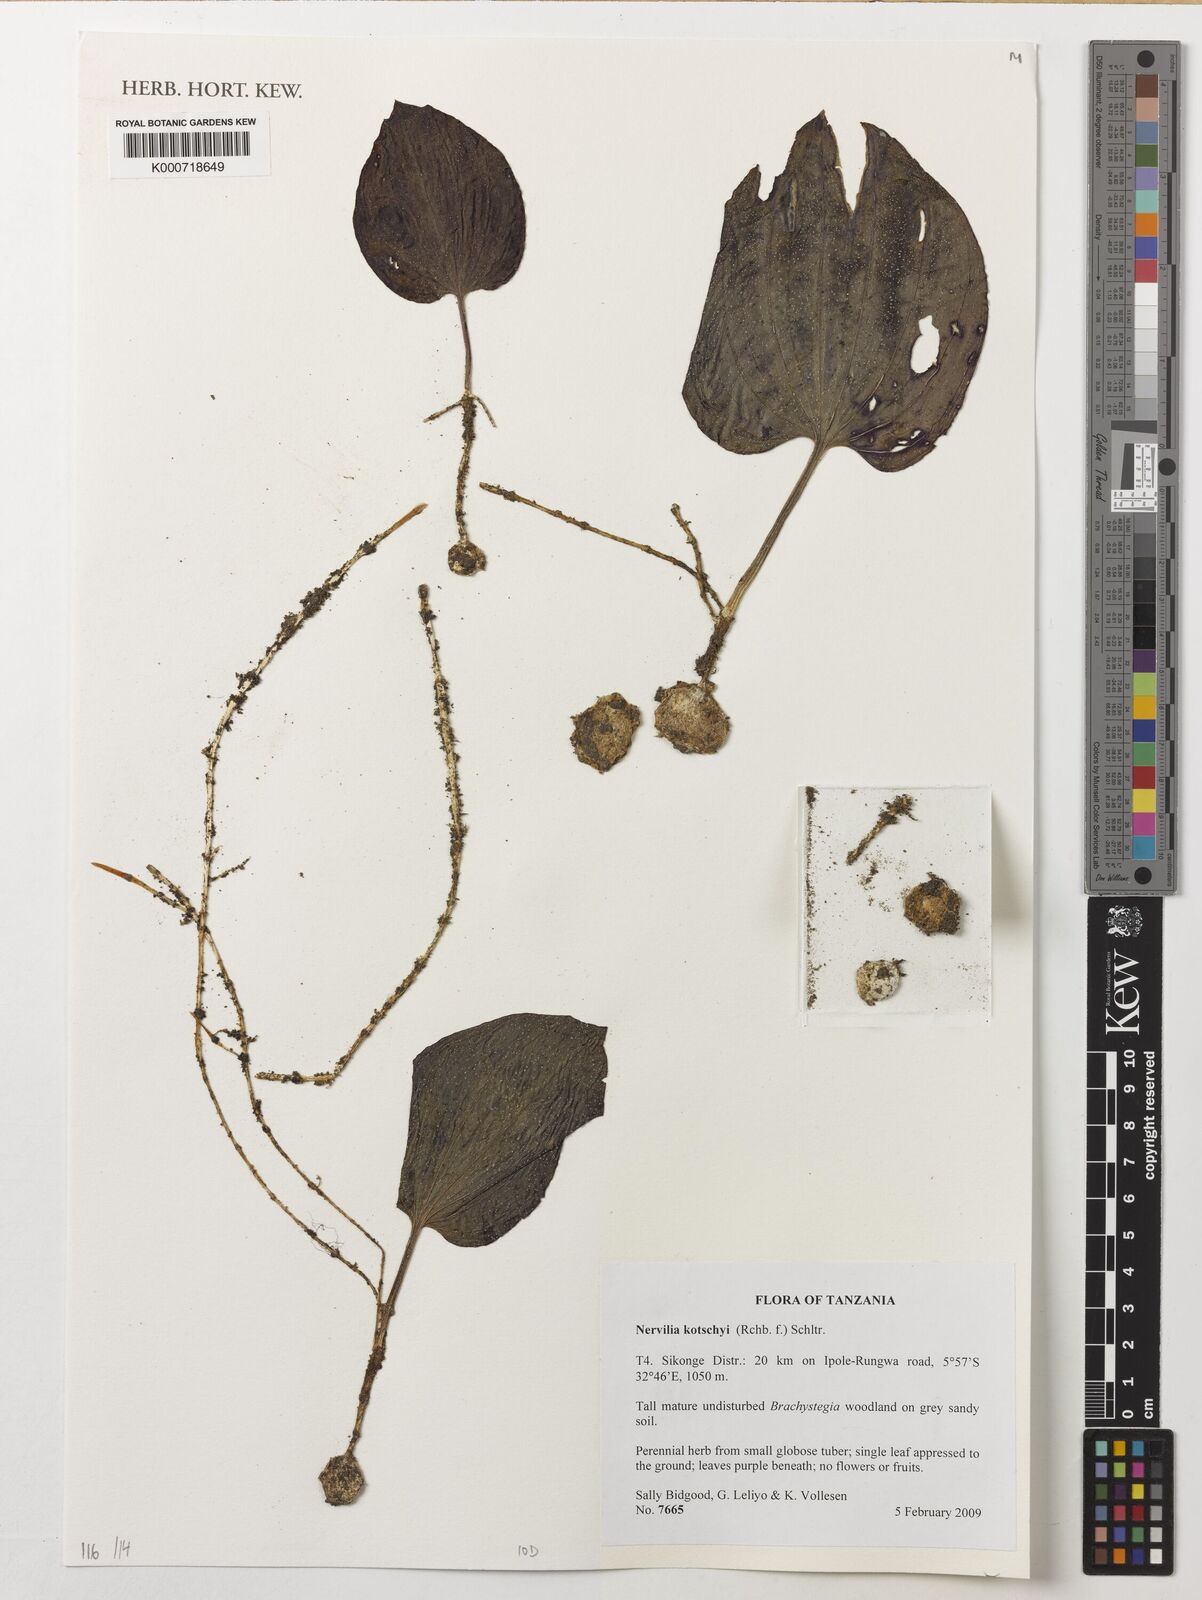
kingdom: Plantae
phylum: Tracheophyta
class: Liliopsida
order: Asparagales
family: Orchidaceae
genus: Nervilia
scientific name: Nervilia kotschyi
